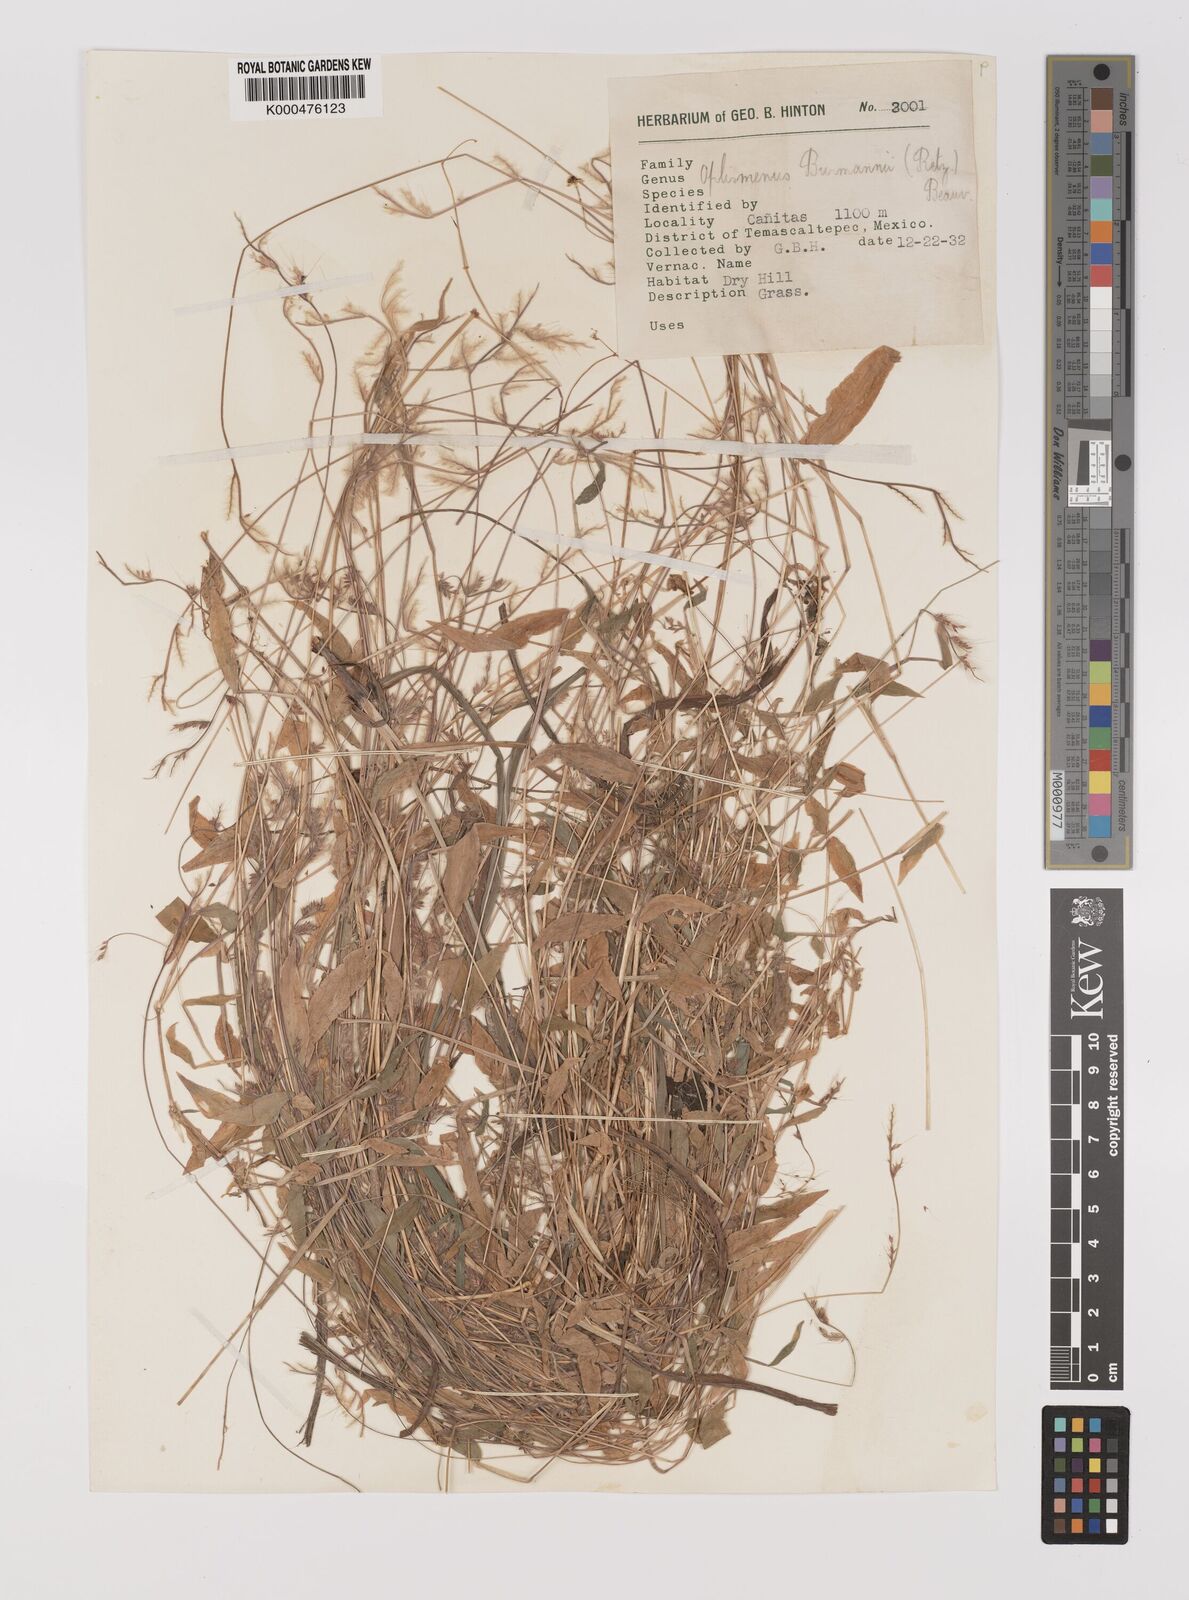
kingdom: Plantae
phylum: Tracheophyta
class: Liliopsida
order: Poales
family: Poaceae
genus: Oplismenus
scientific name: Oplismenus burmanni
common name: Burmann's basketgrass
